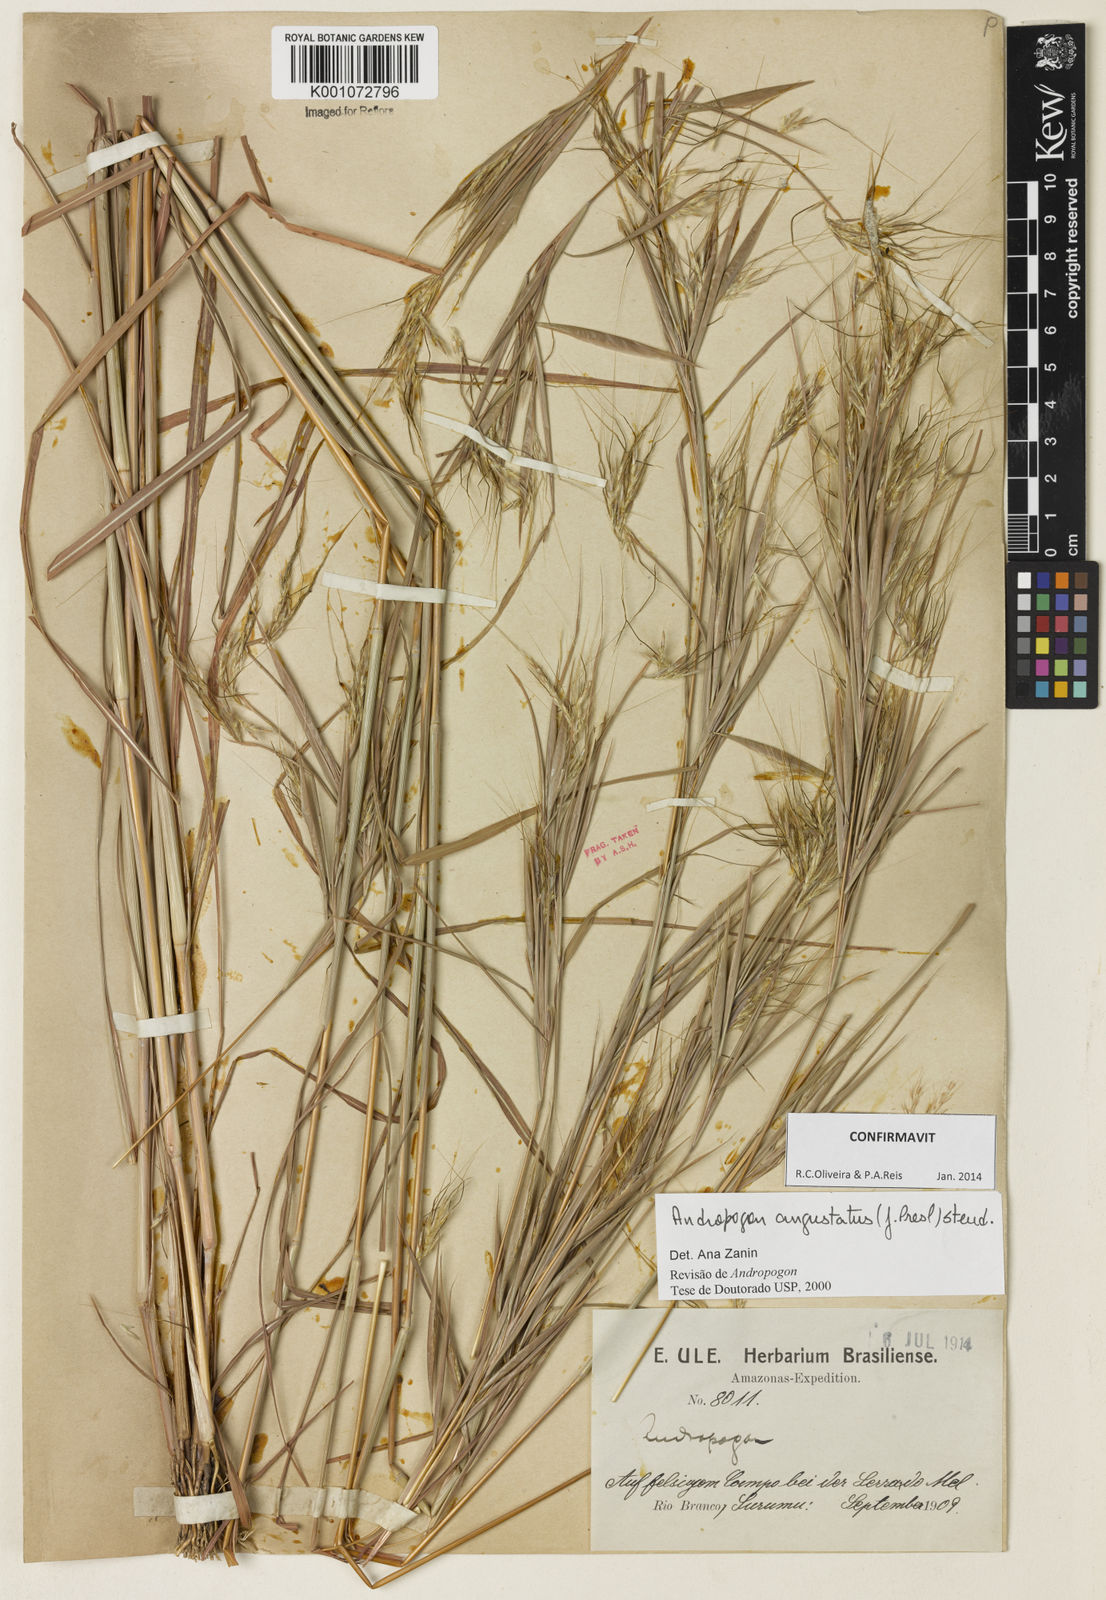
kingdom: Plantae
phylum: Tracheophyta
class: Liliopsida
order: Poales
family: Poaceae
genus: Andropogon
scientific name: Andropogon angustatus
